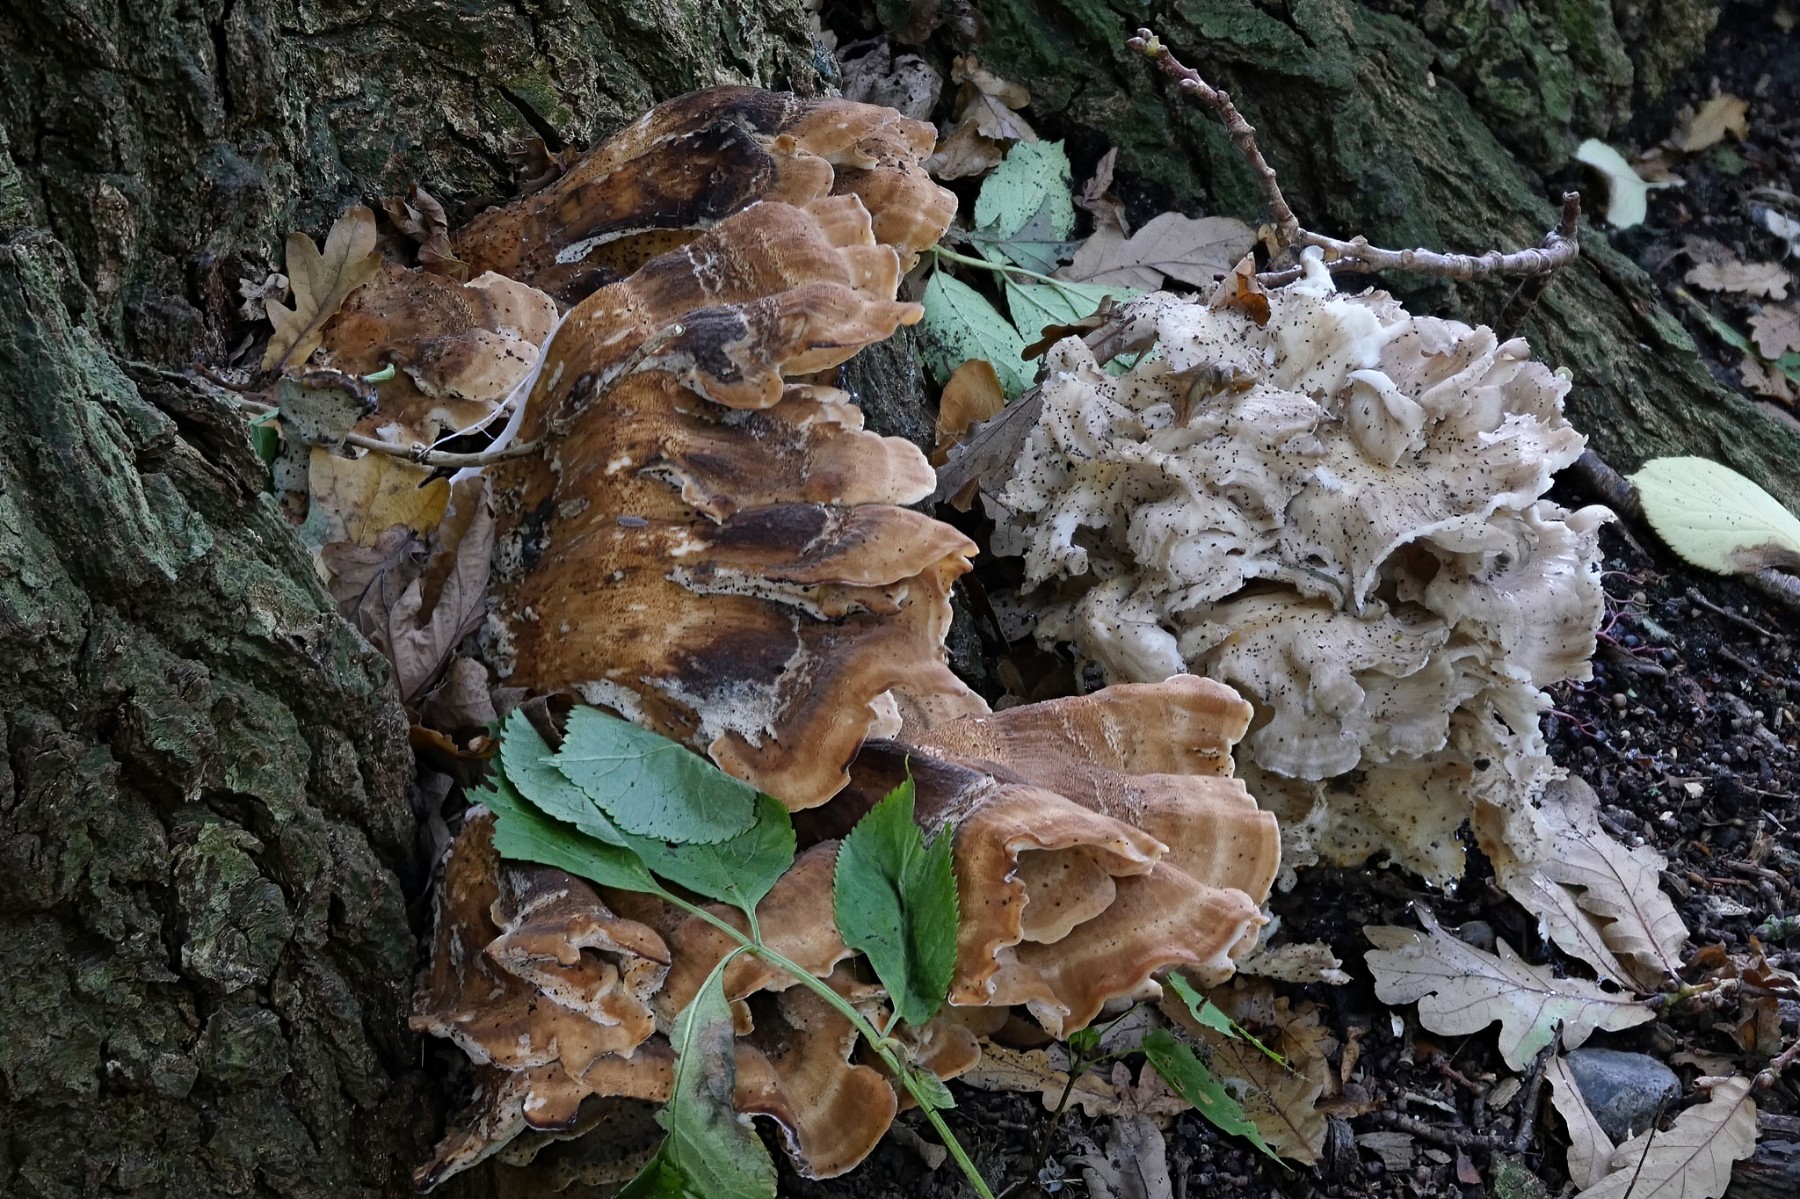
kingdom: Fungi
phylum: Basidiomycota
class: Agaricomycetes
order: Polyporales
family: Meripilaceae
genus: Meripilus
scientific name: Meripilus giganteus
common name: kæmpeporesvamp
